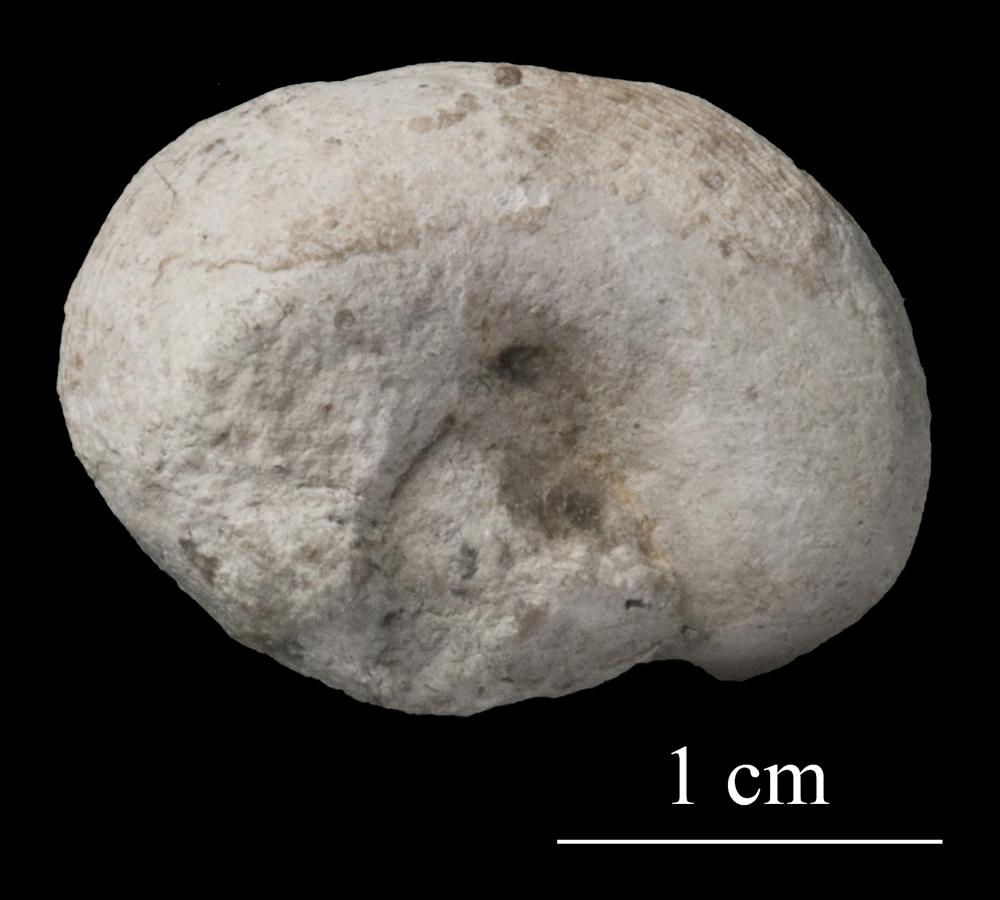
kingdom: Animalia
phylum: Mollusca
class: Gastropoda
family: Lophospiridae
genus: Proturritella
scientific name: Proturritella Turbinites bicarinatus
